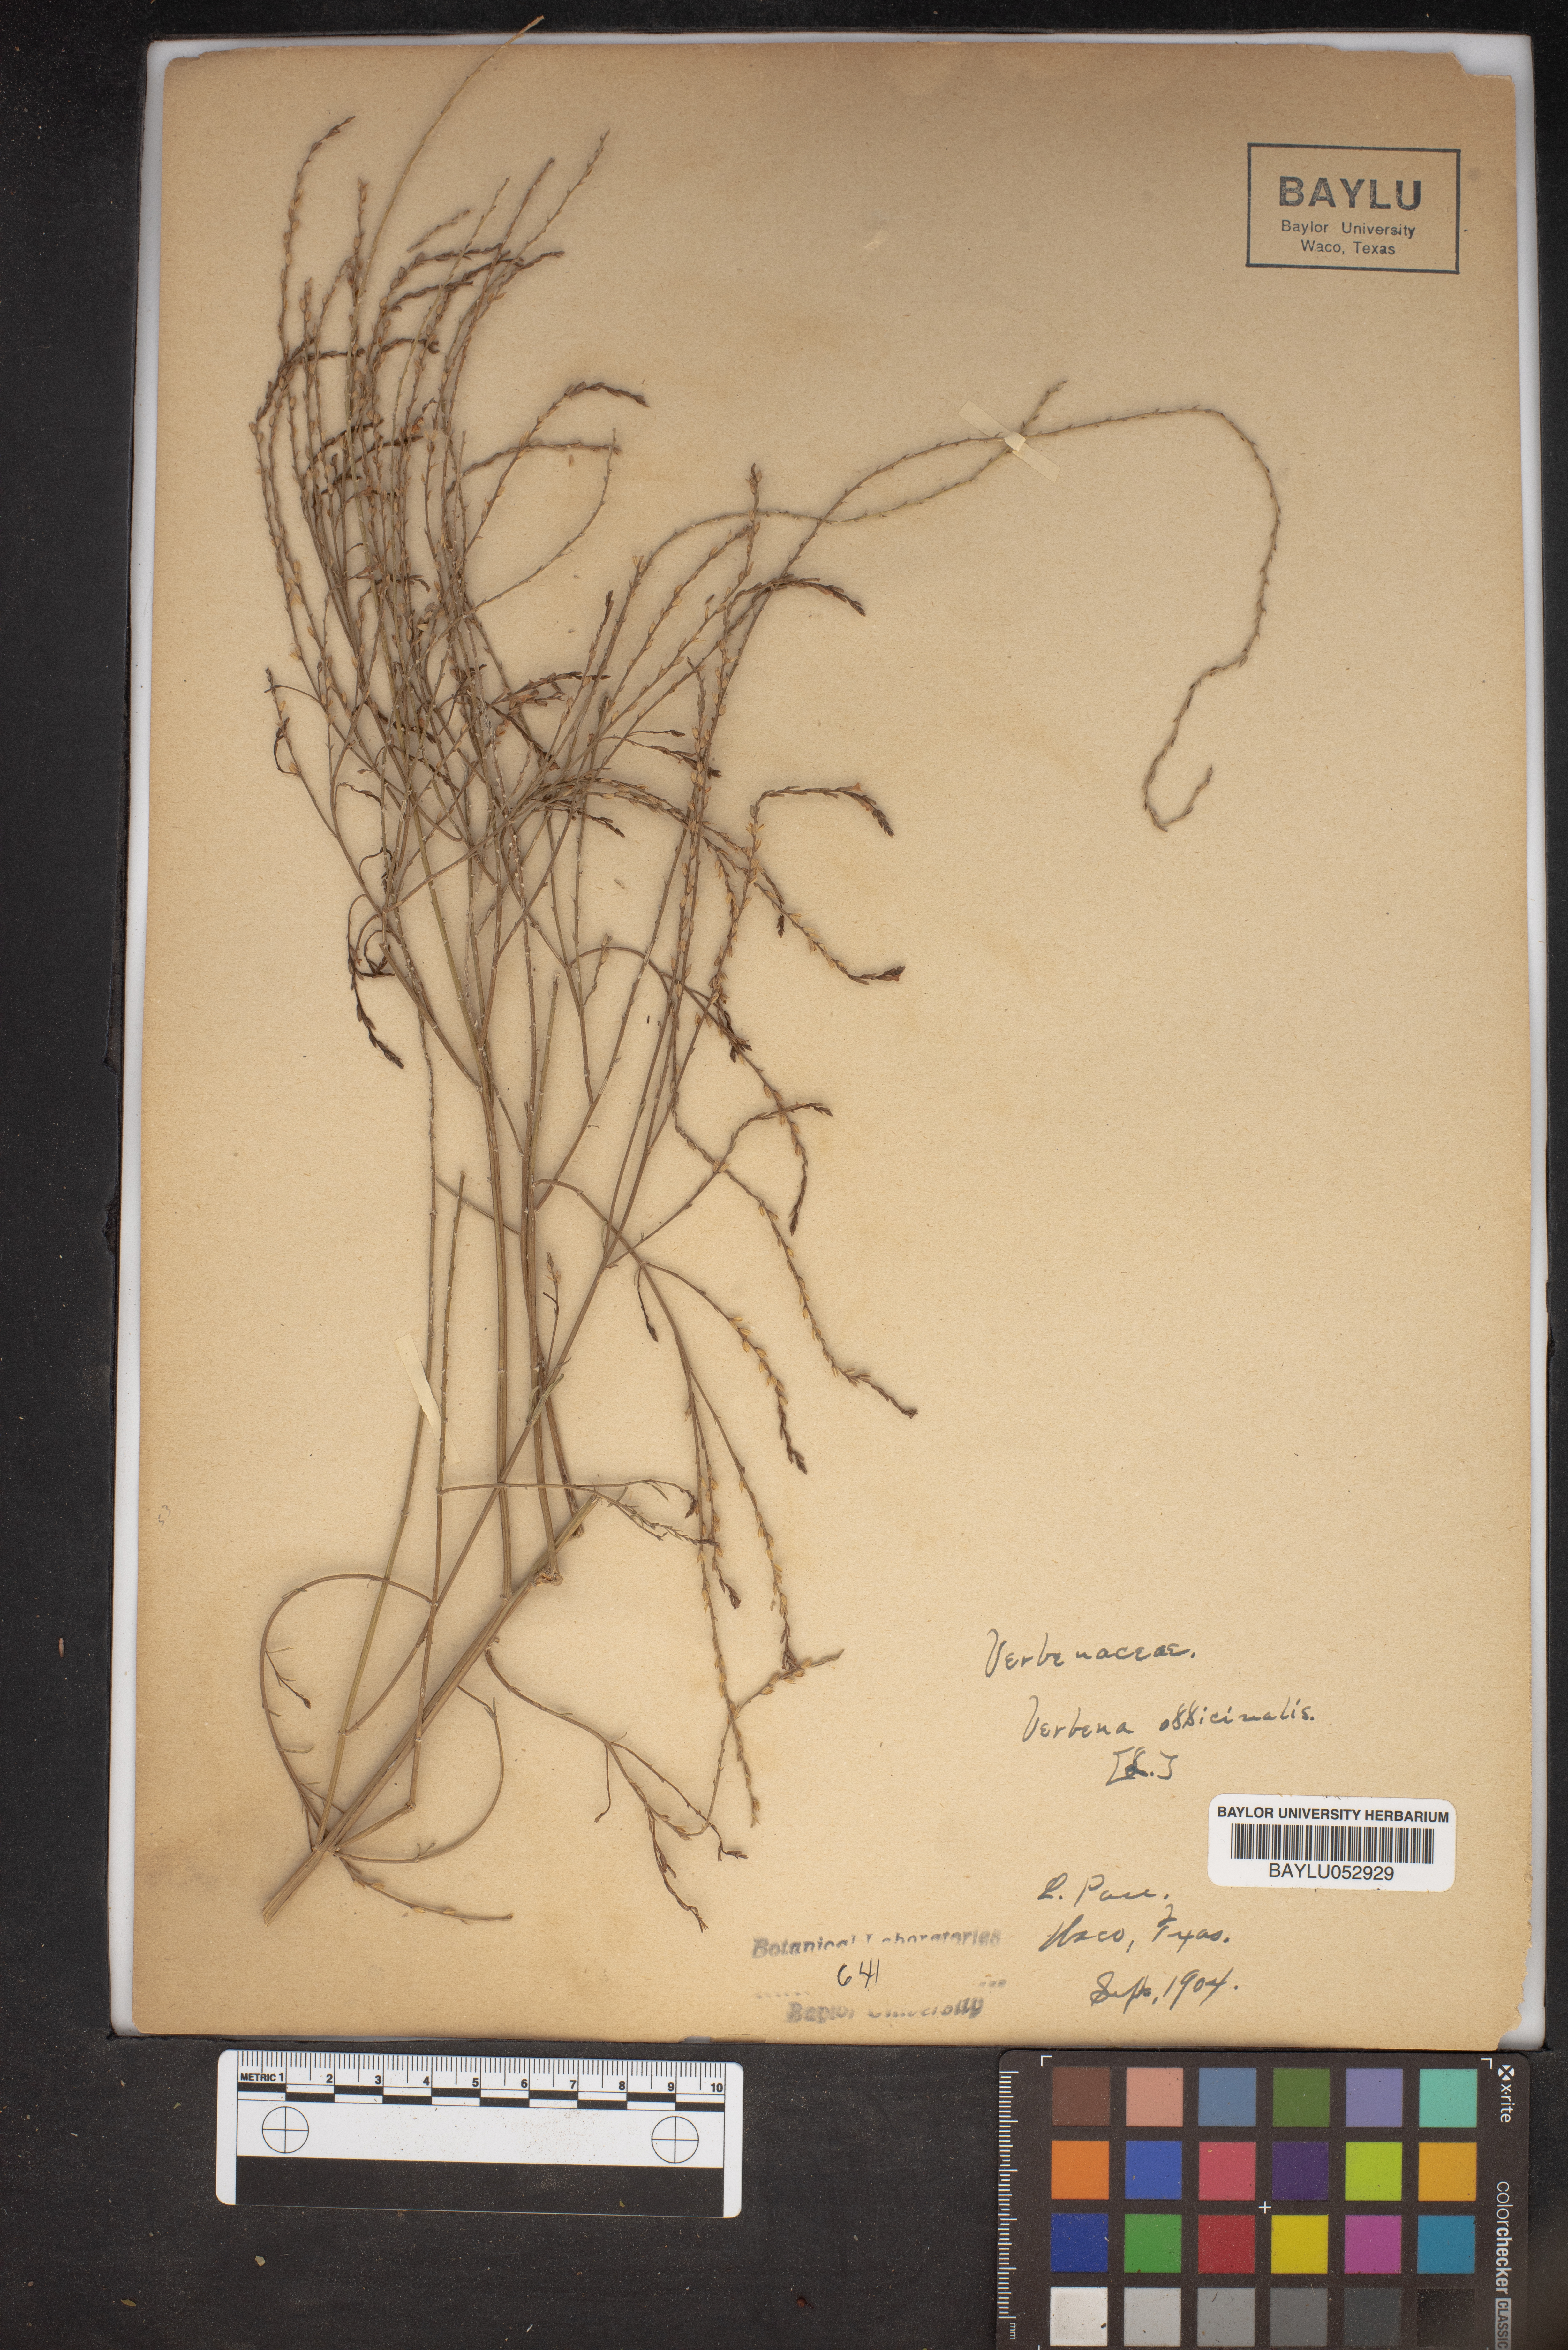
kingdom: Plantae
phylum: Tracheophyta
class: Magnoliopsida
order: Lamiales
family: Verbenaceae
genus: Verbena
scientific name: Verbena officinalis
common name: Vervain
